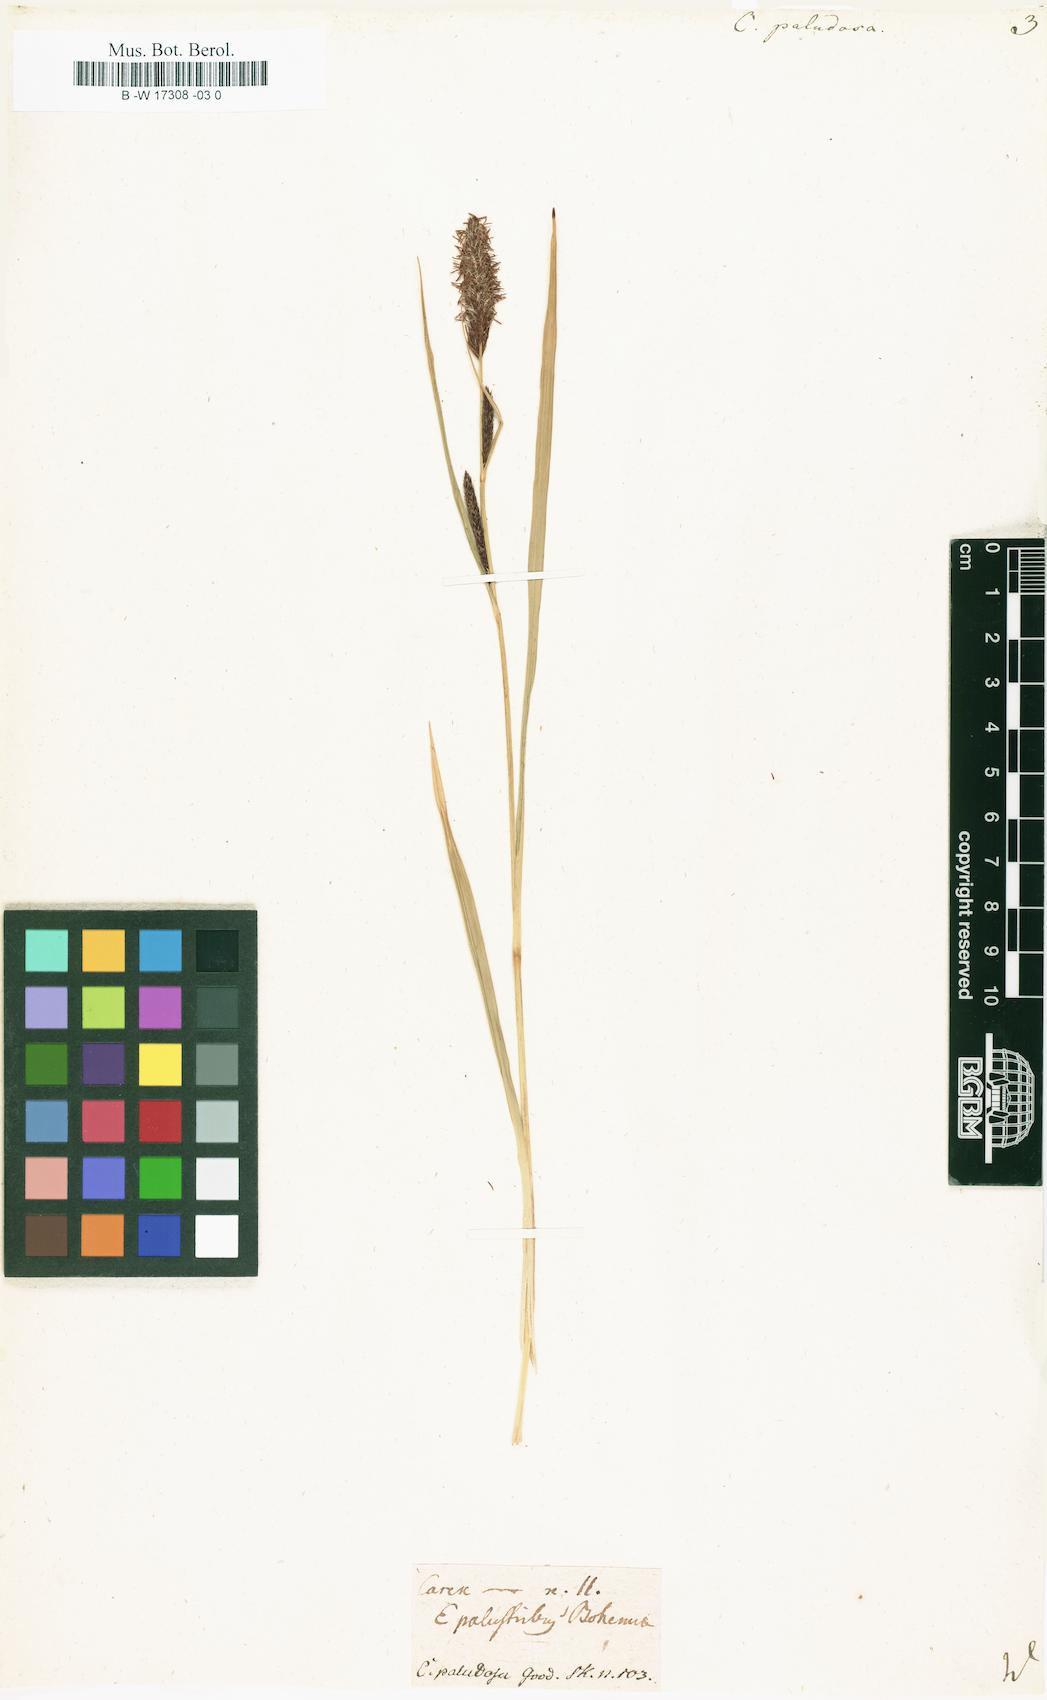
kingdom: Plantae
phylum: Tracheophyta
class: Liliopsida
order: Poales
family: Cyperaceae
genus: Carex
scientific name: Carex acutiformis
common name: Lesser pond-sedge
